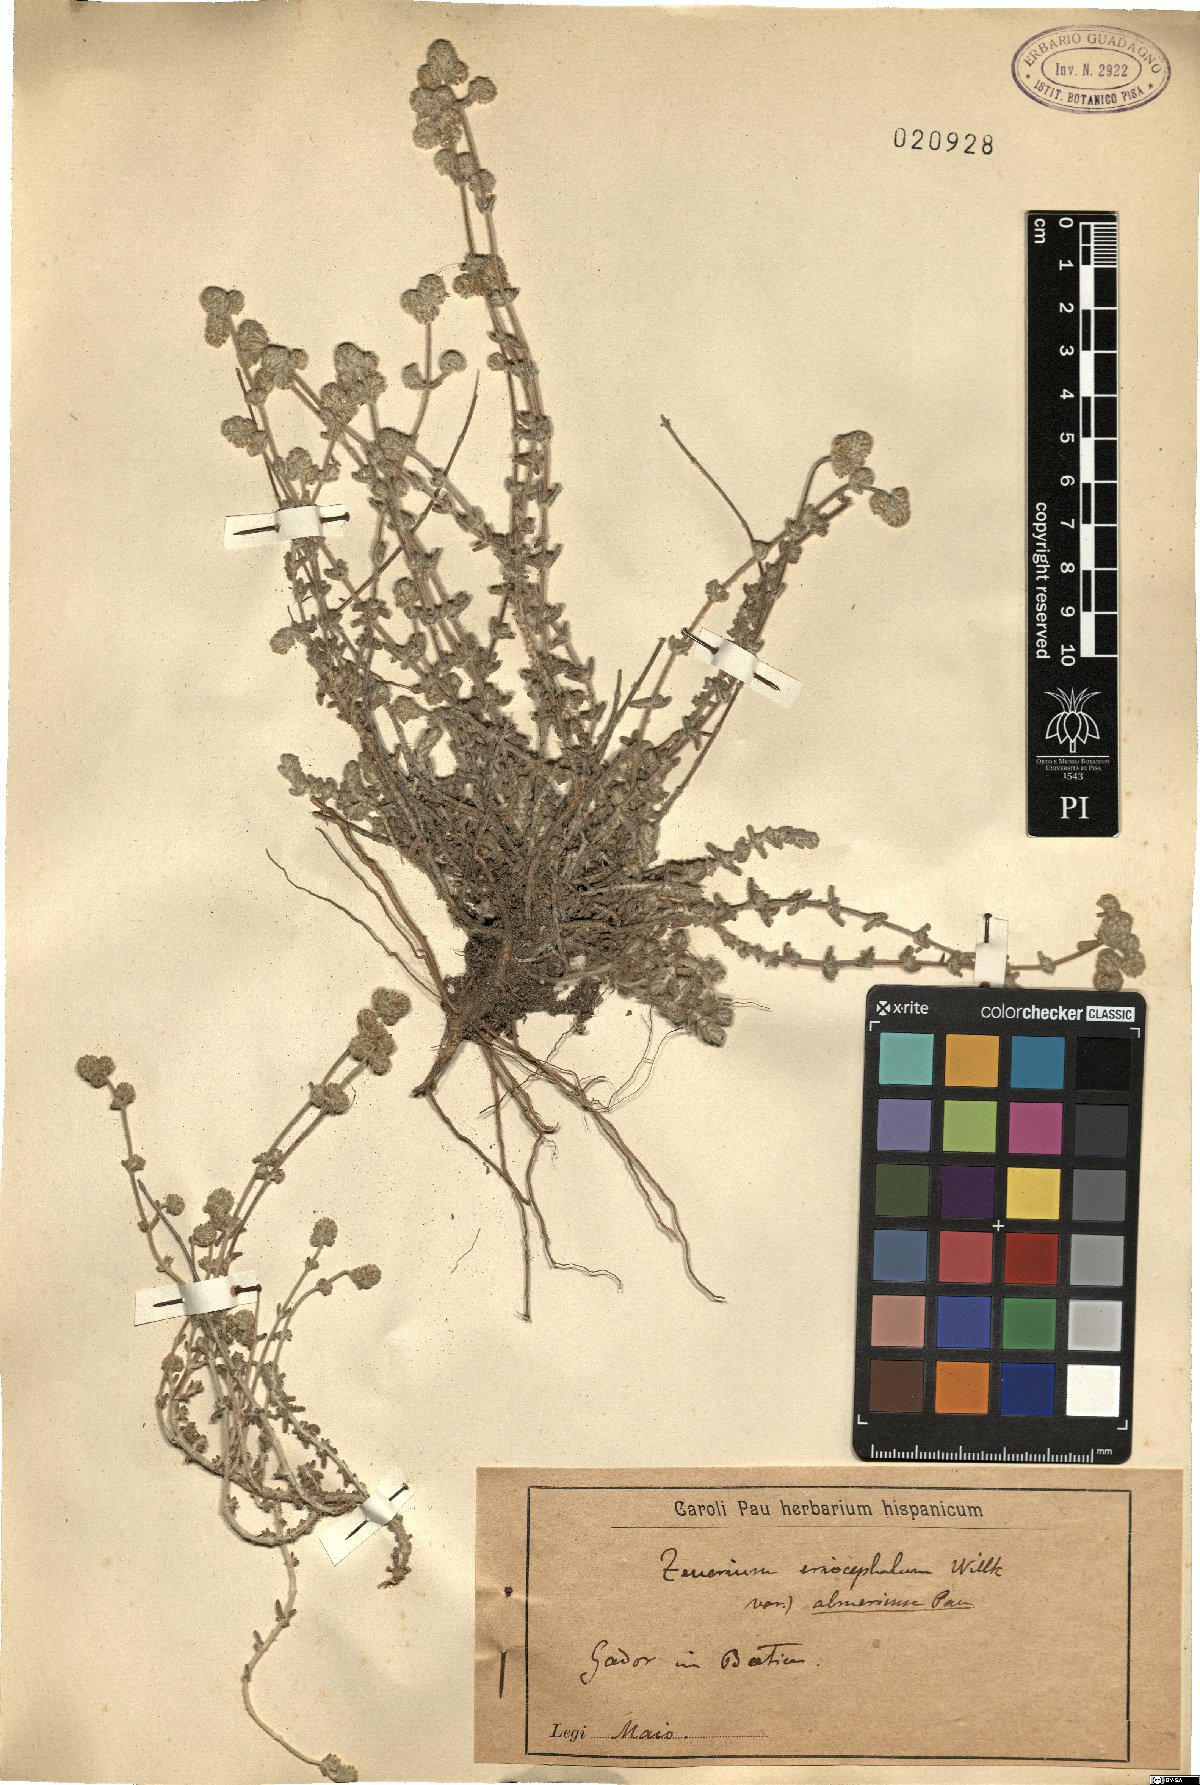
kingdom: Plantae
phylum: Tracheophyta
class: Magnoliopsida
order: Lamiales
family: Lamiaceae
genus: Teucrium
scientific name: Teucrium eriocephalum
